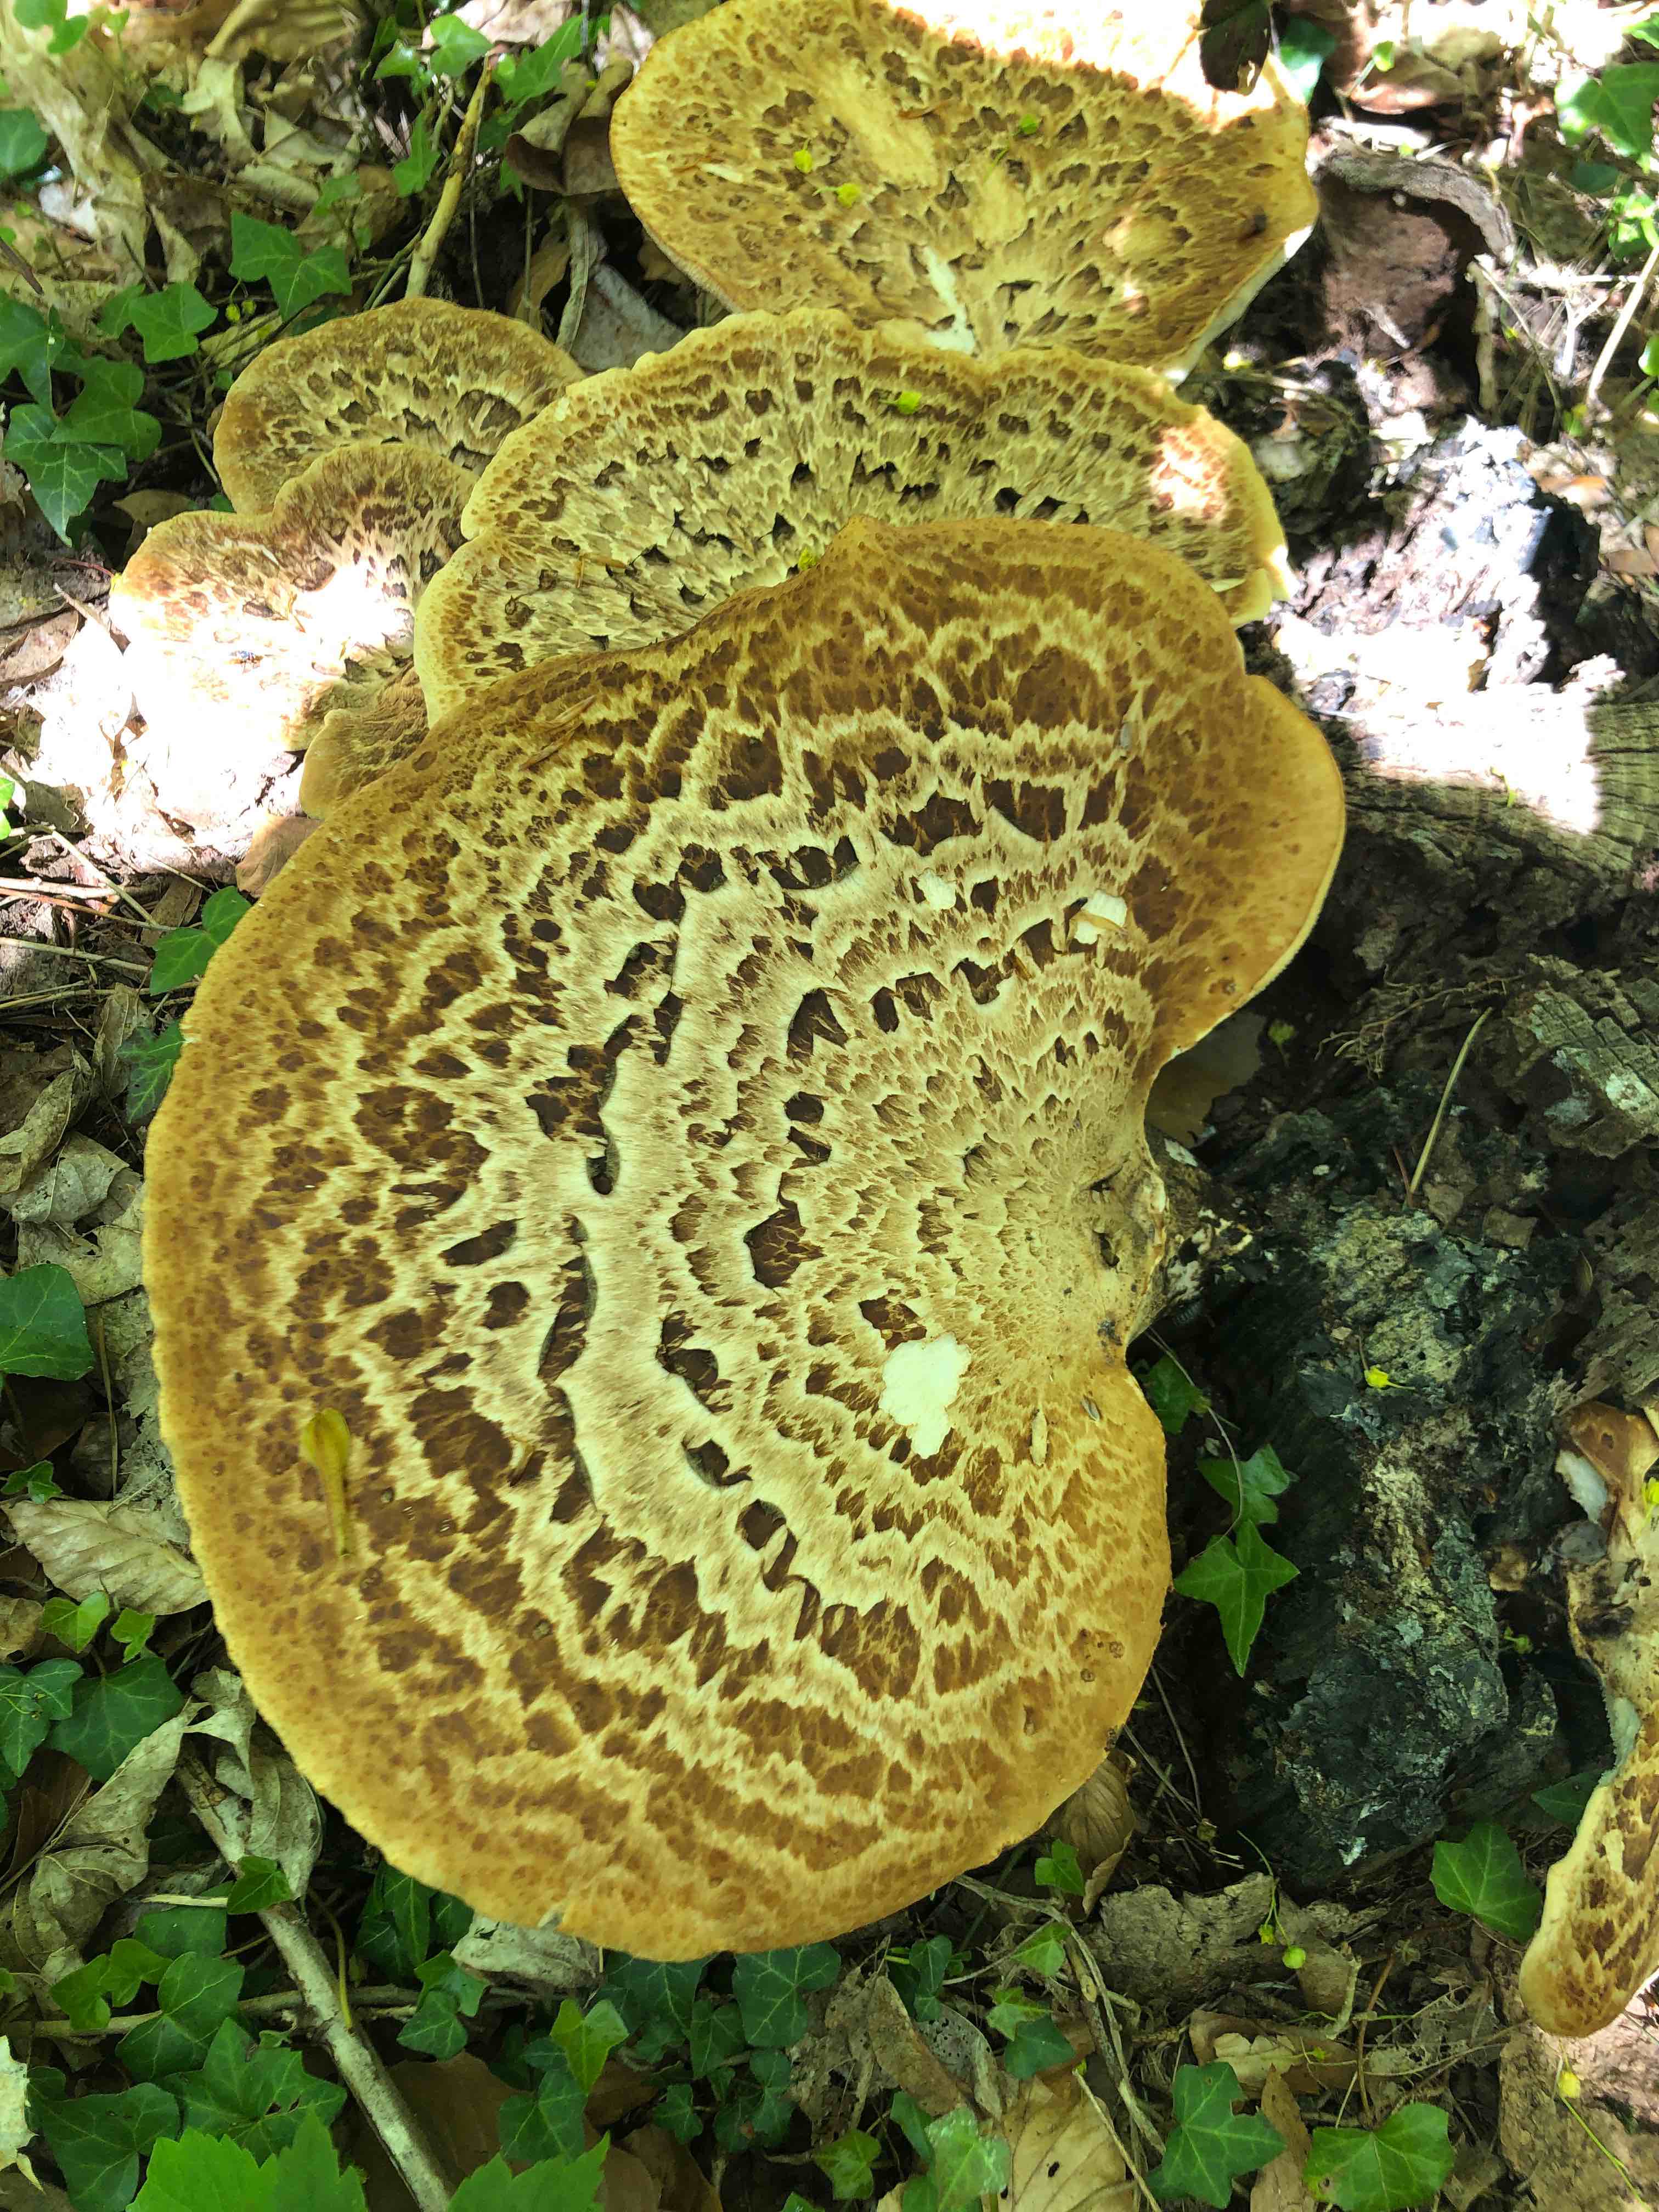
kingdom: Fungi
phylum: Basidiomycota
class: Agaricomycetes
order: Polyporales
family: Polyporaceae
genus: Cerioporus
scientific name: Cerioporus squamosus
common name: skællet stilkporesvamp
